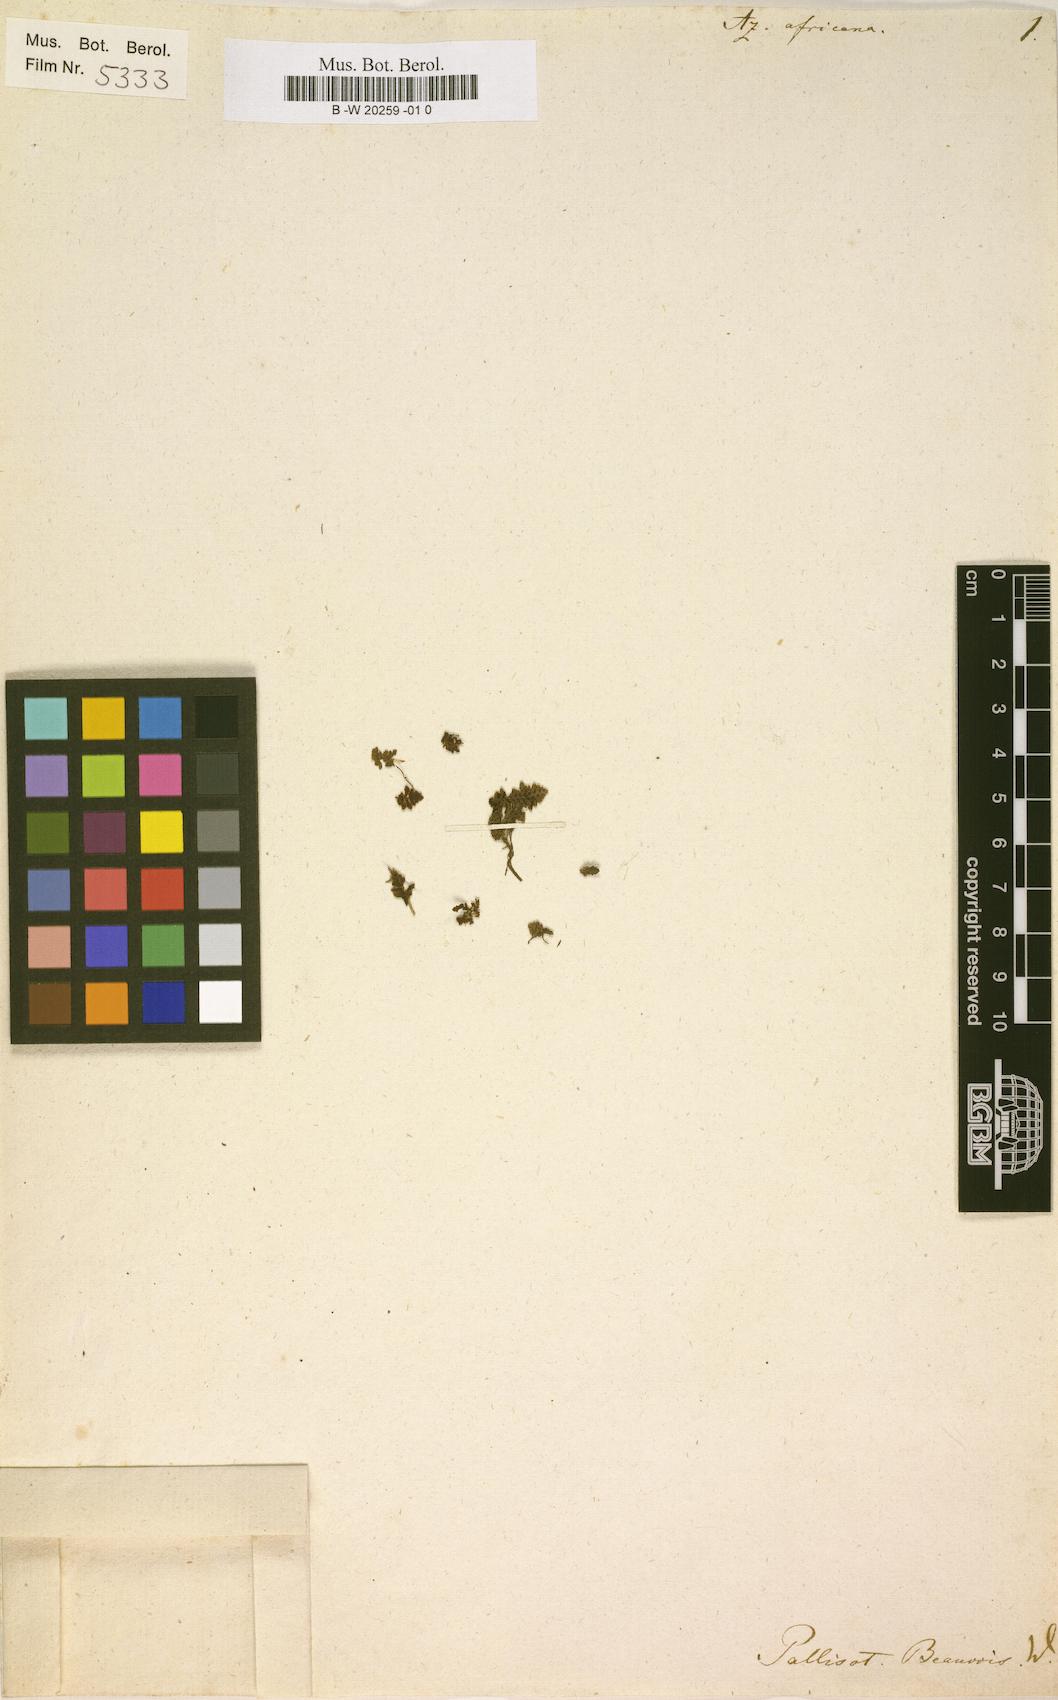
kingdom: Plantae
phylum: Tracheophyta
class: Polypodiopsida
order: Salviniales
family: Salviniaceae
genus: Azolla
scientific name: Azolla pinnata
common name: Ferny azolla
